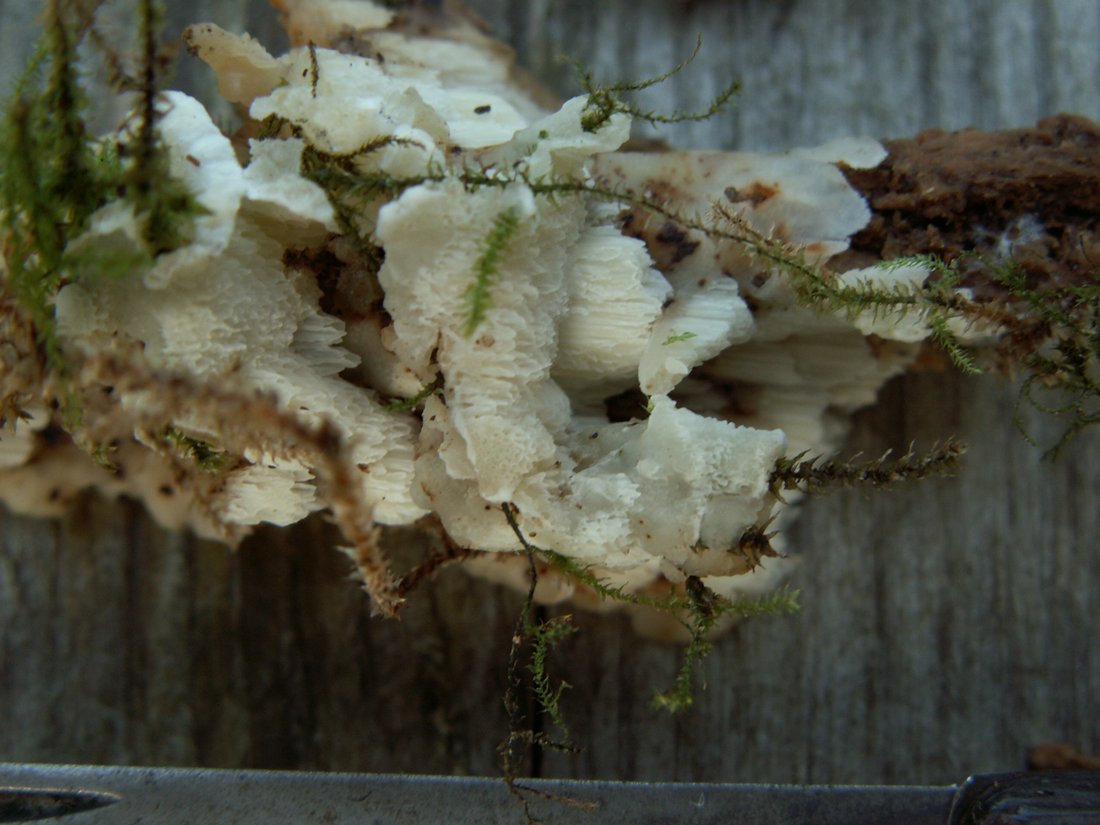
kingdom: Fungi
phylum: Basidiomycota
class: Agaricomycetes
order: Polyporales
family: Meruliaceae
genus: Physisporinus
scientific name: Physisporinus vitreus
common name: mastesvamp
